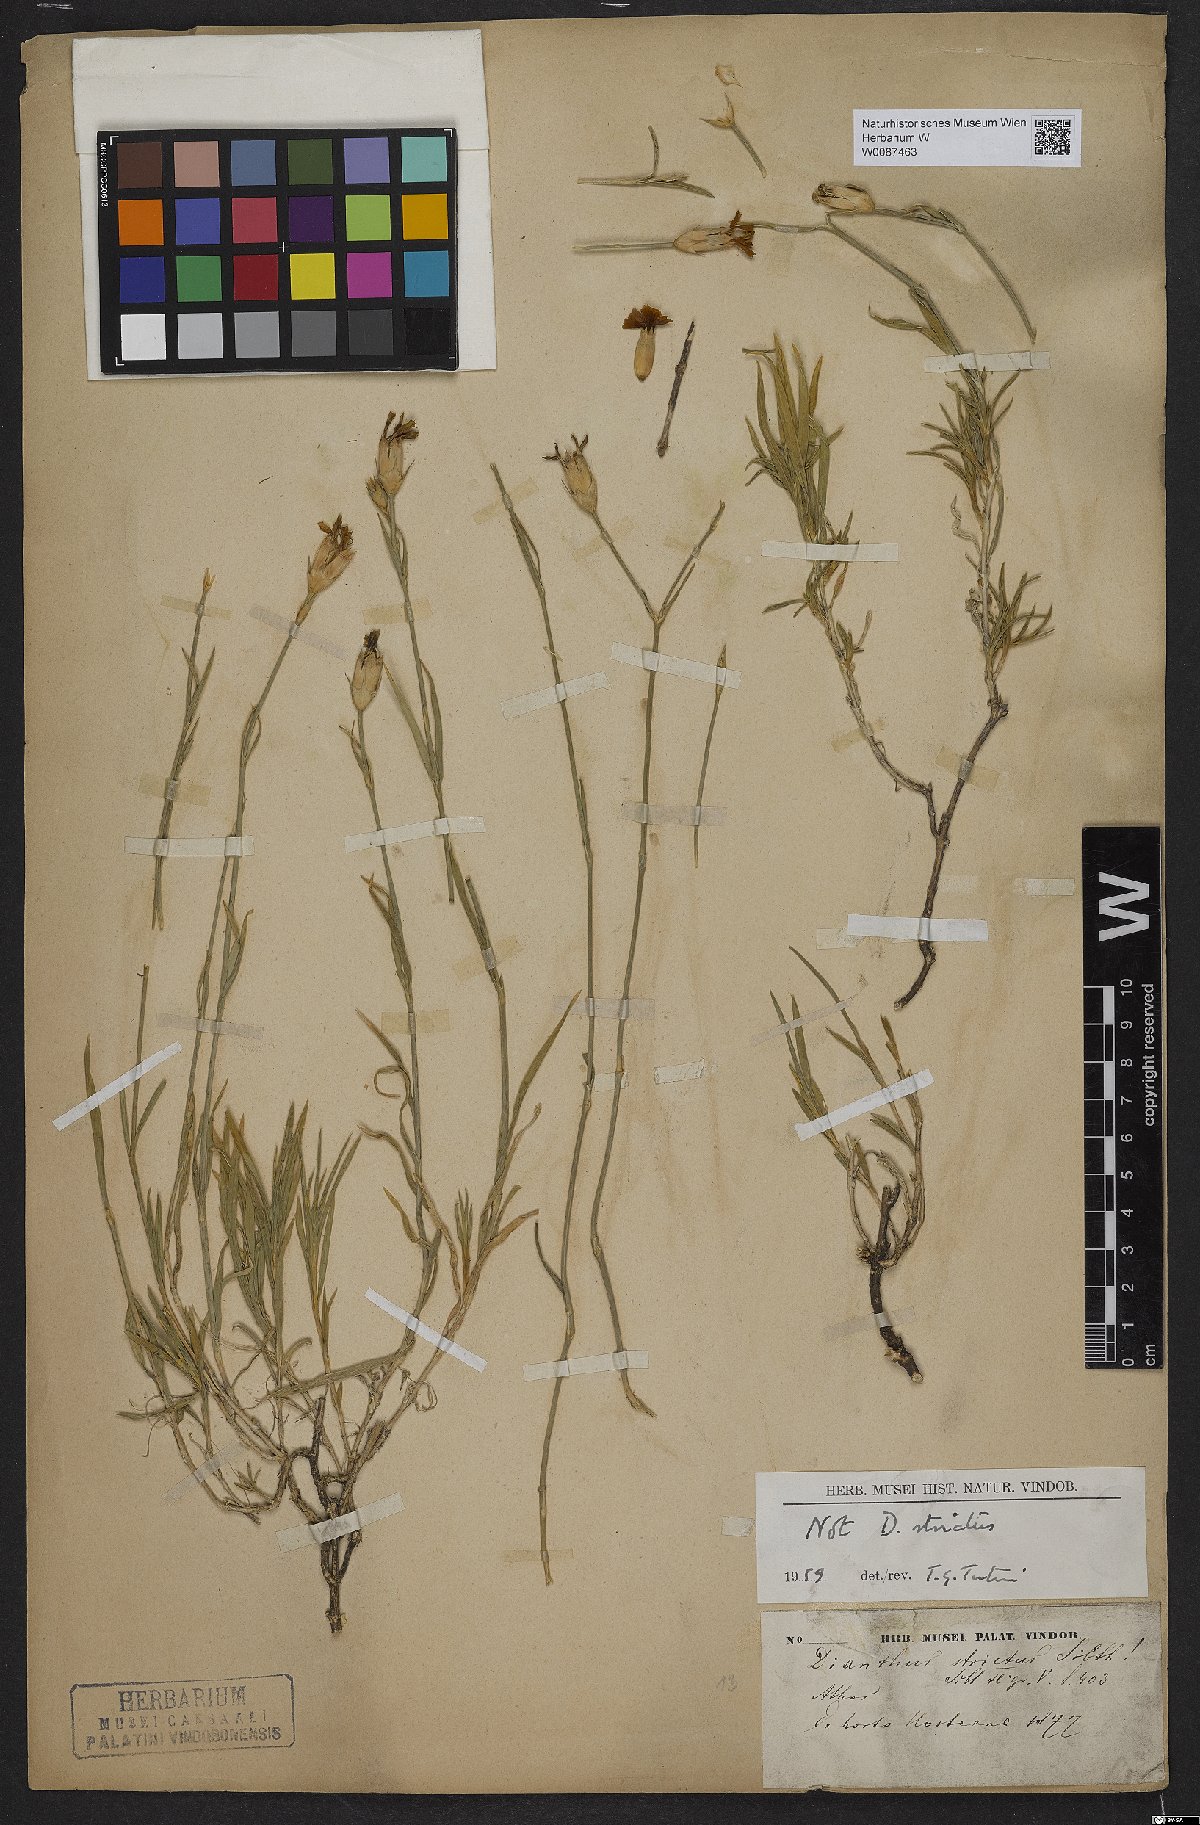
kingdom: Plantae
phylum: Tracheophyta
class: Magnoliopsida
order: Caryophyllales
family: Caryophyllaceae
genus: Dianthus
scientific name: Dianthus
